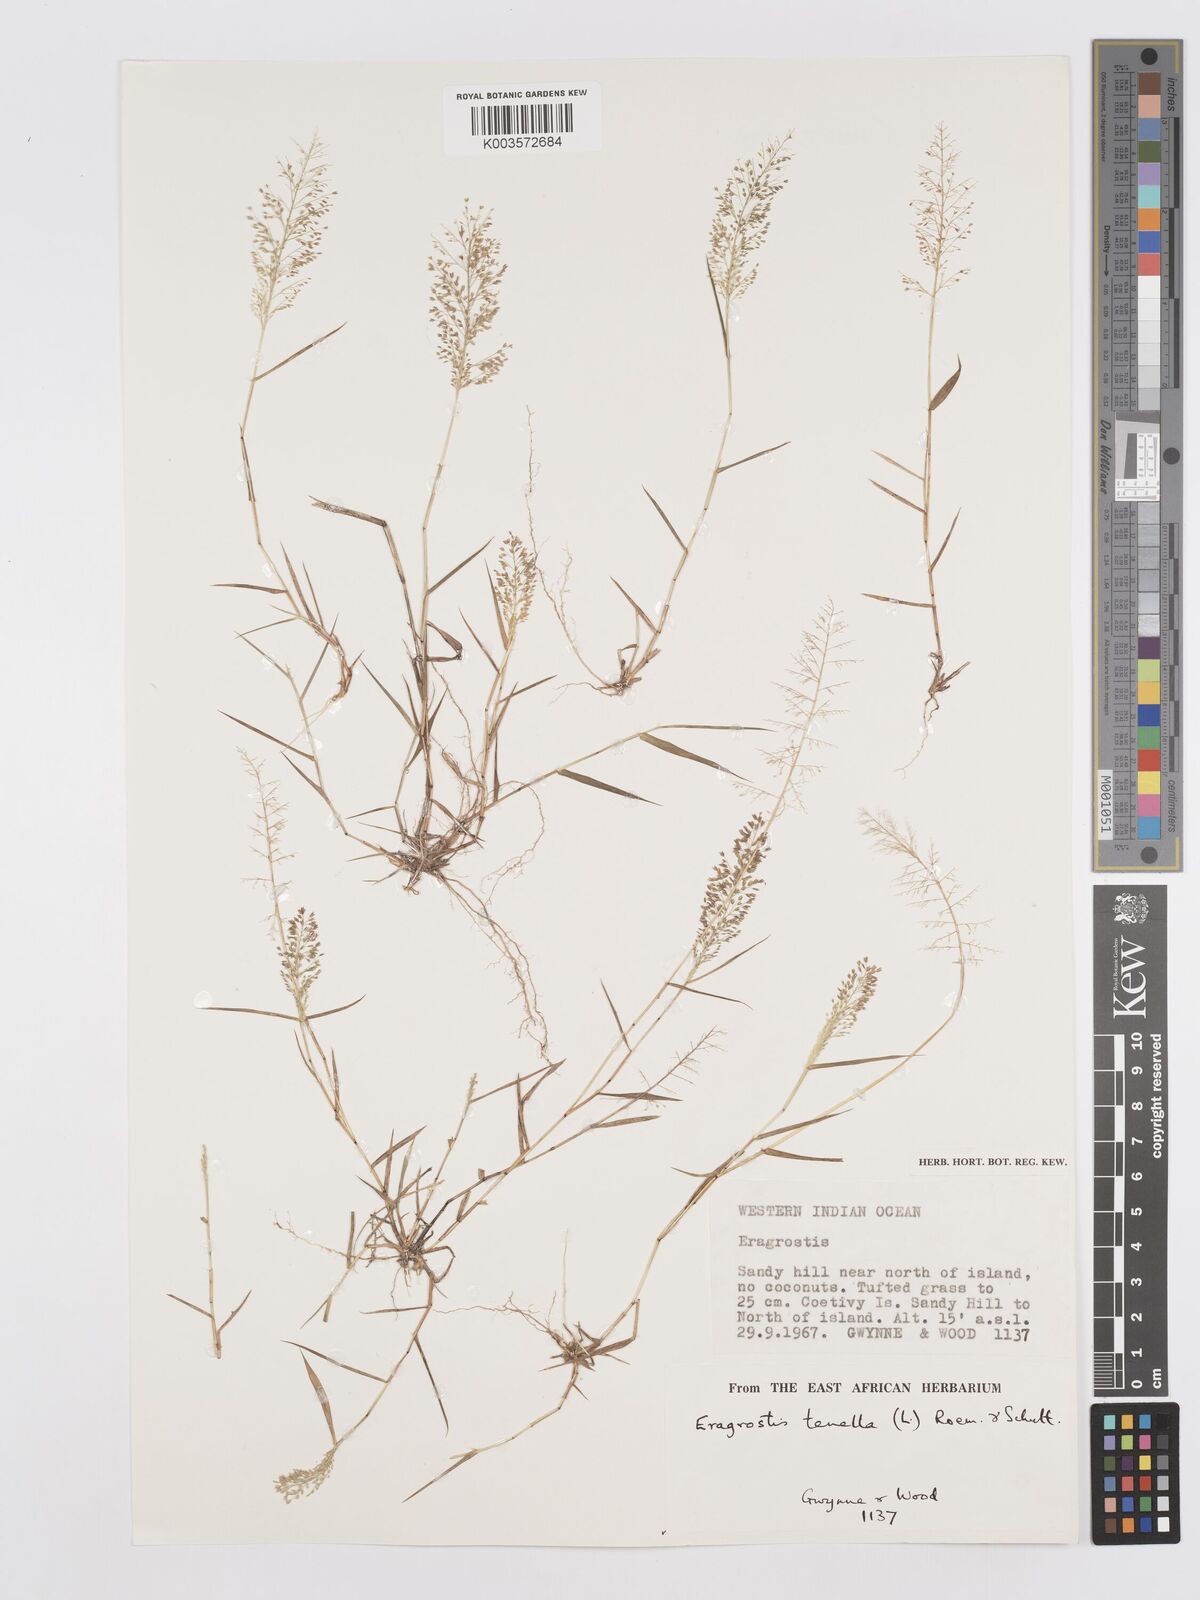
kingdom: Plantae
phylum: Tracheophyta
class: Liliopsida
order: Poales
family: Poaceae
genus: Eragrostis
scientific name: Eragrostis tenella
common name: Japanese lovegrass
